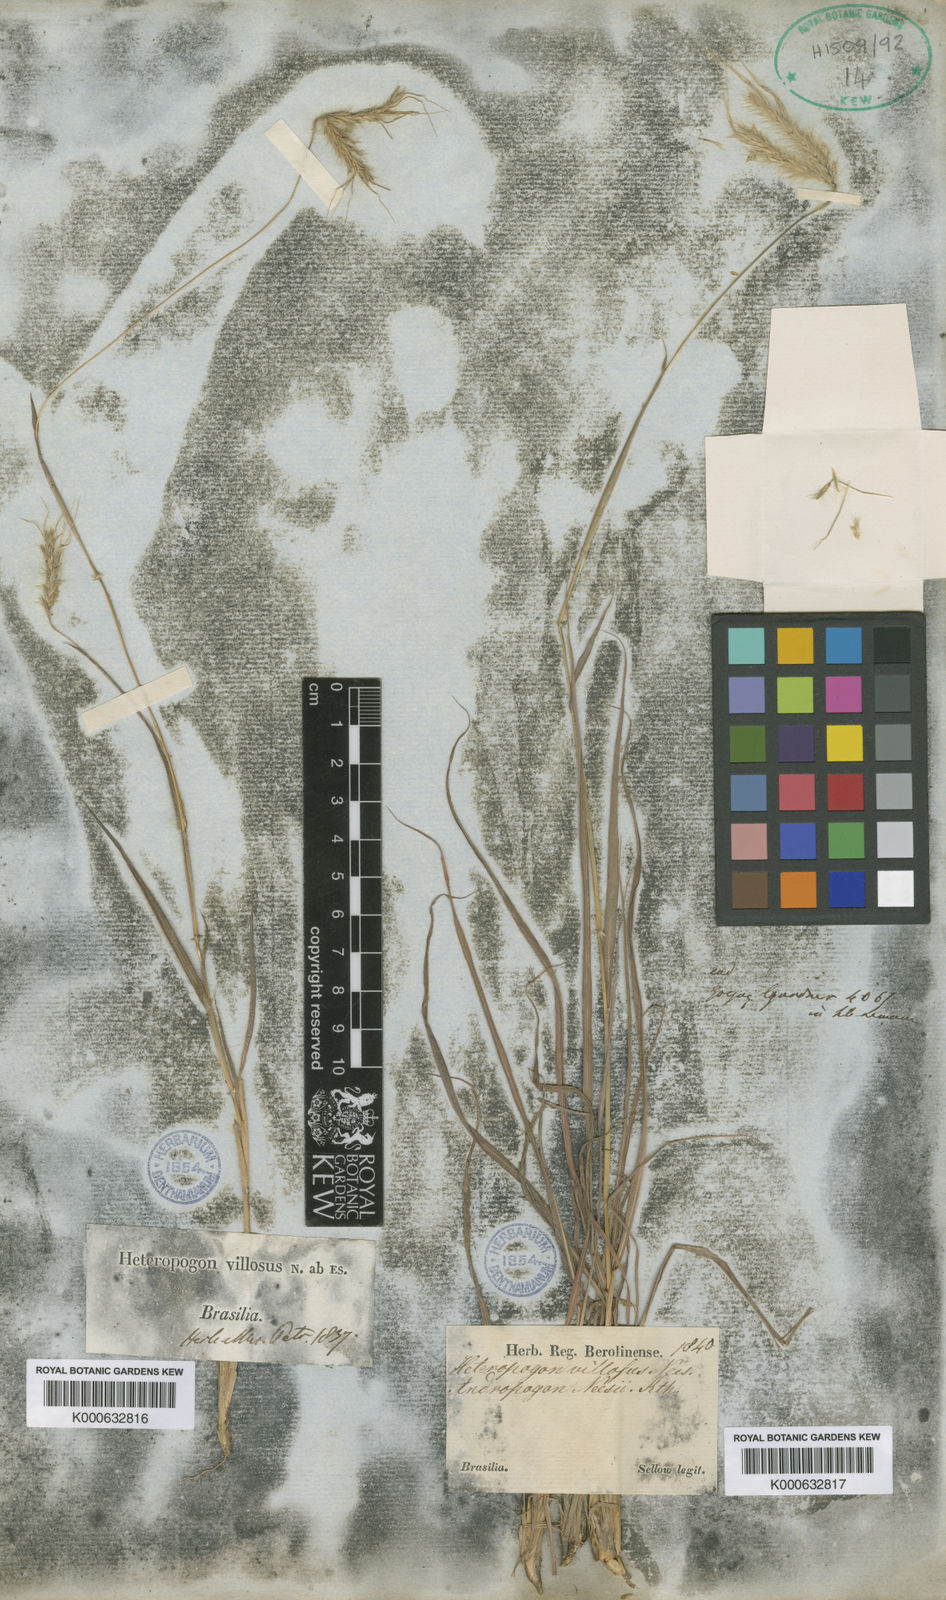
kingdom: Plantae
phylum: Tracheophyta
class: Liliopsida
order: Poales
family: Poaceae
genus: Agenium
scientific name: Agenium villosum
